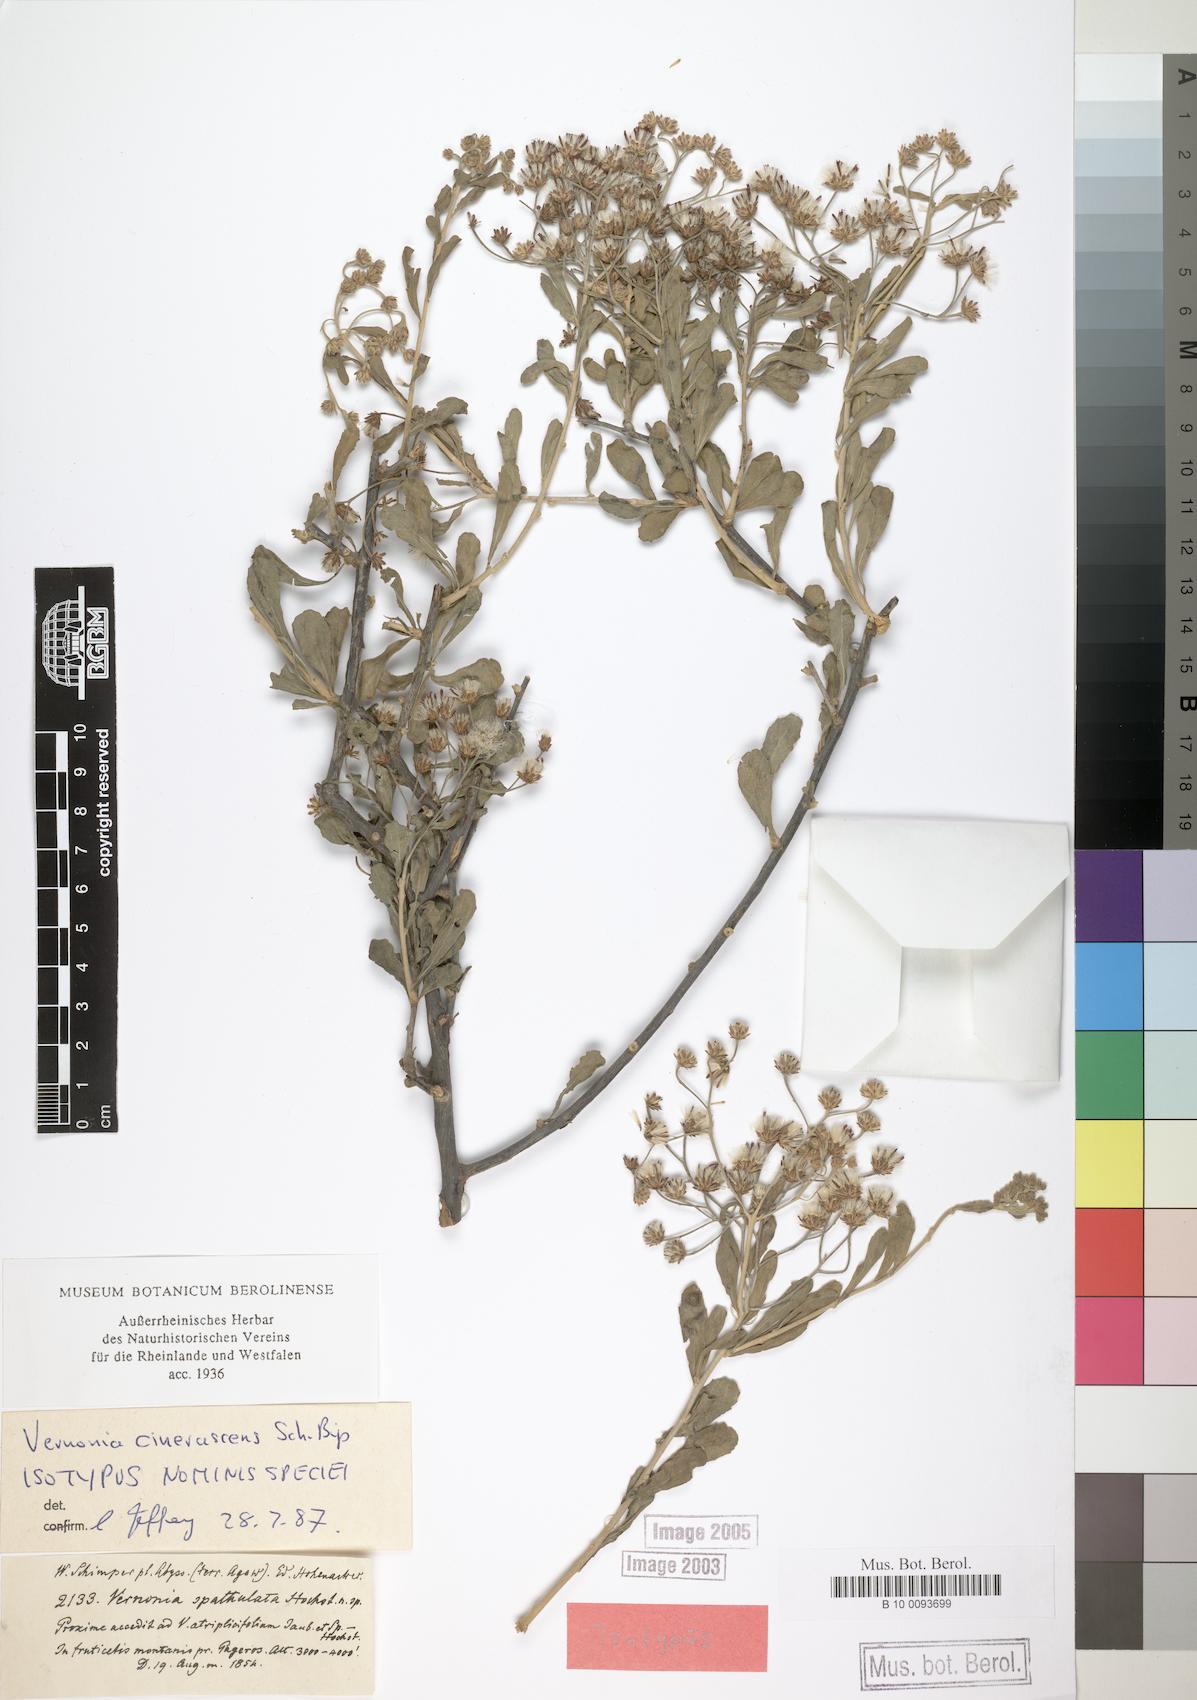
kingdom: Plantae
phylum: Tracheophyta
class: Magnoliopsida
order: Asterales
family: Asteraceae
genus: Orbivestus
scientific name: Orbivestus cinerascens
